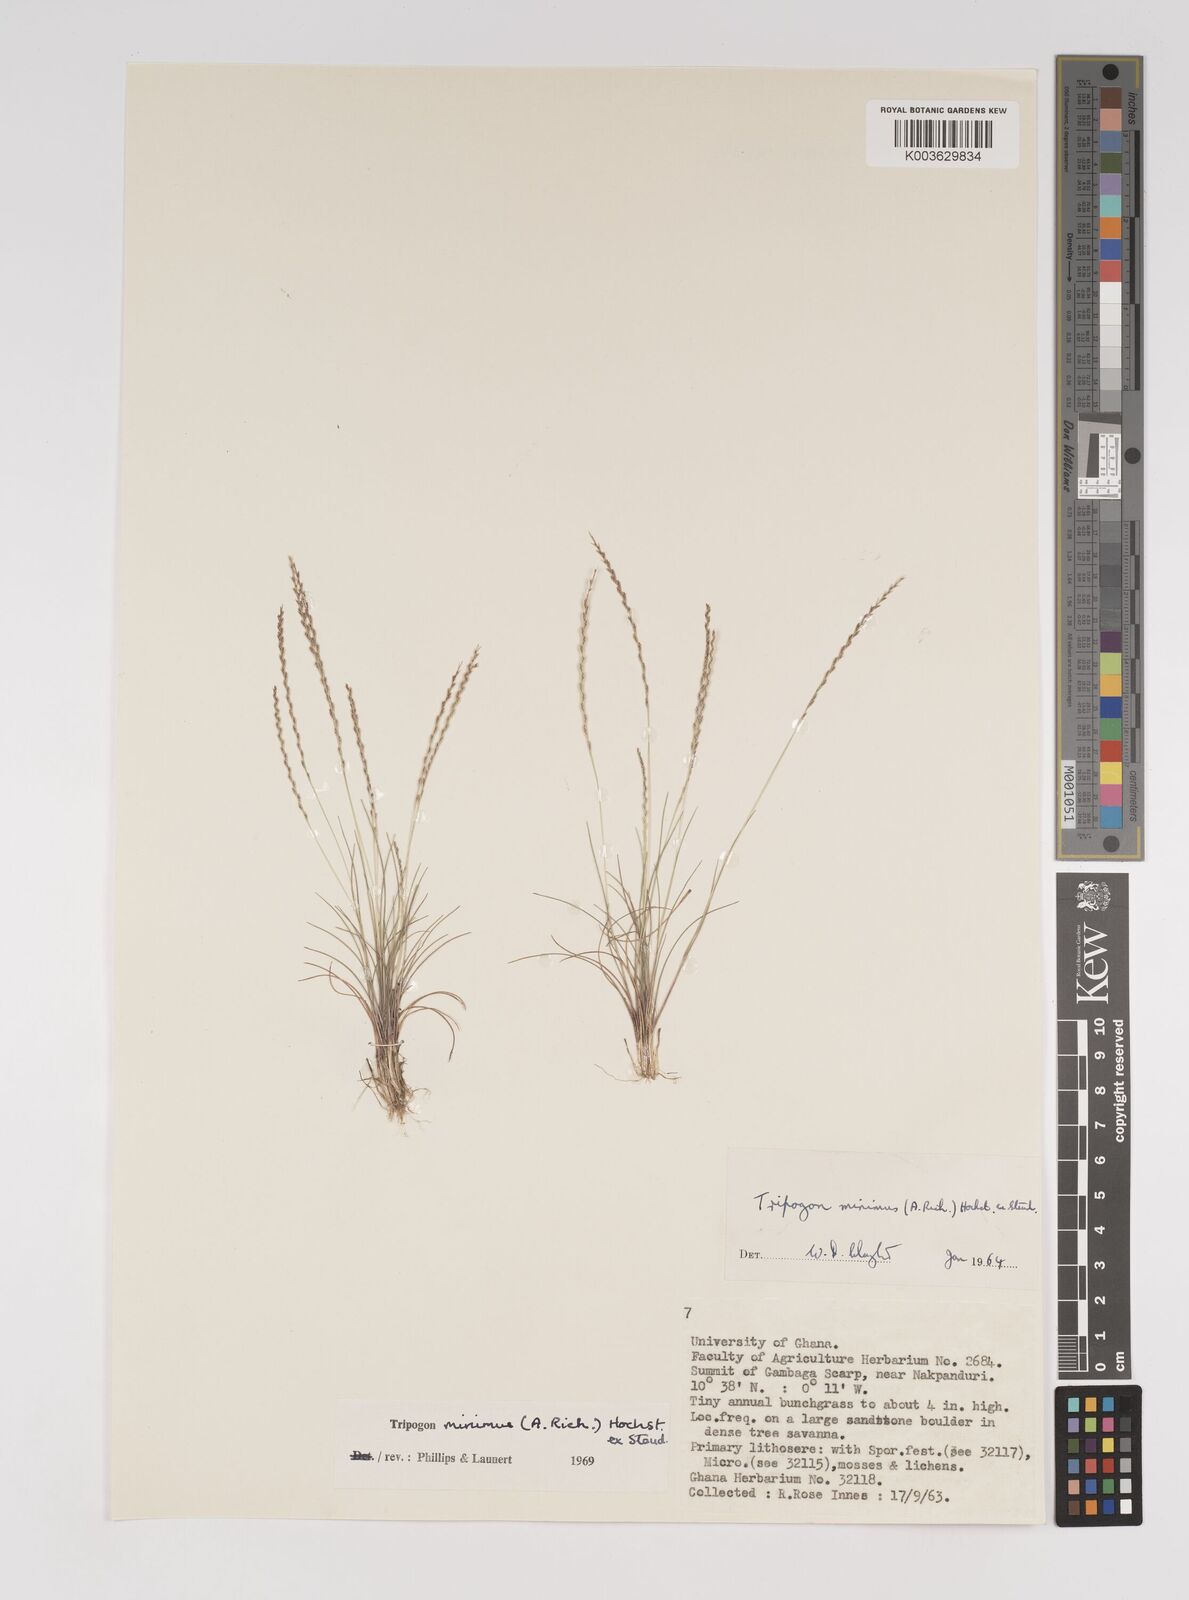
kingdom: Plantae
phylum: Tracheophyta
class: Liliopsida
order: Poales
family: Poaceae
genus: Tripogonella
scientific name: Tripogonella minima
